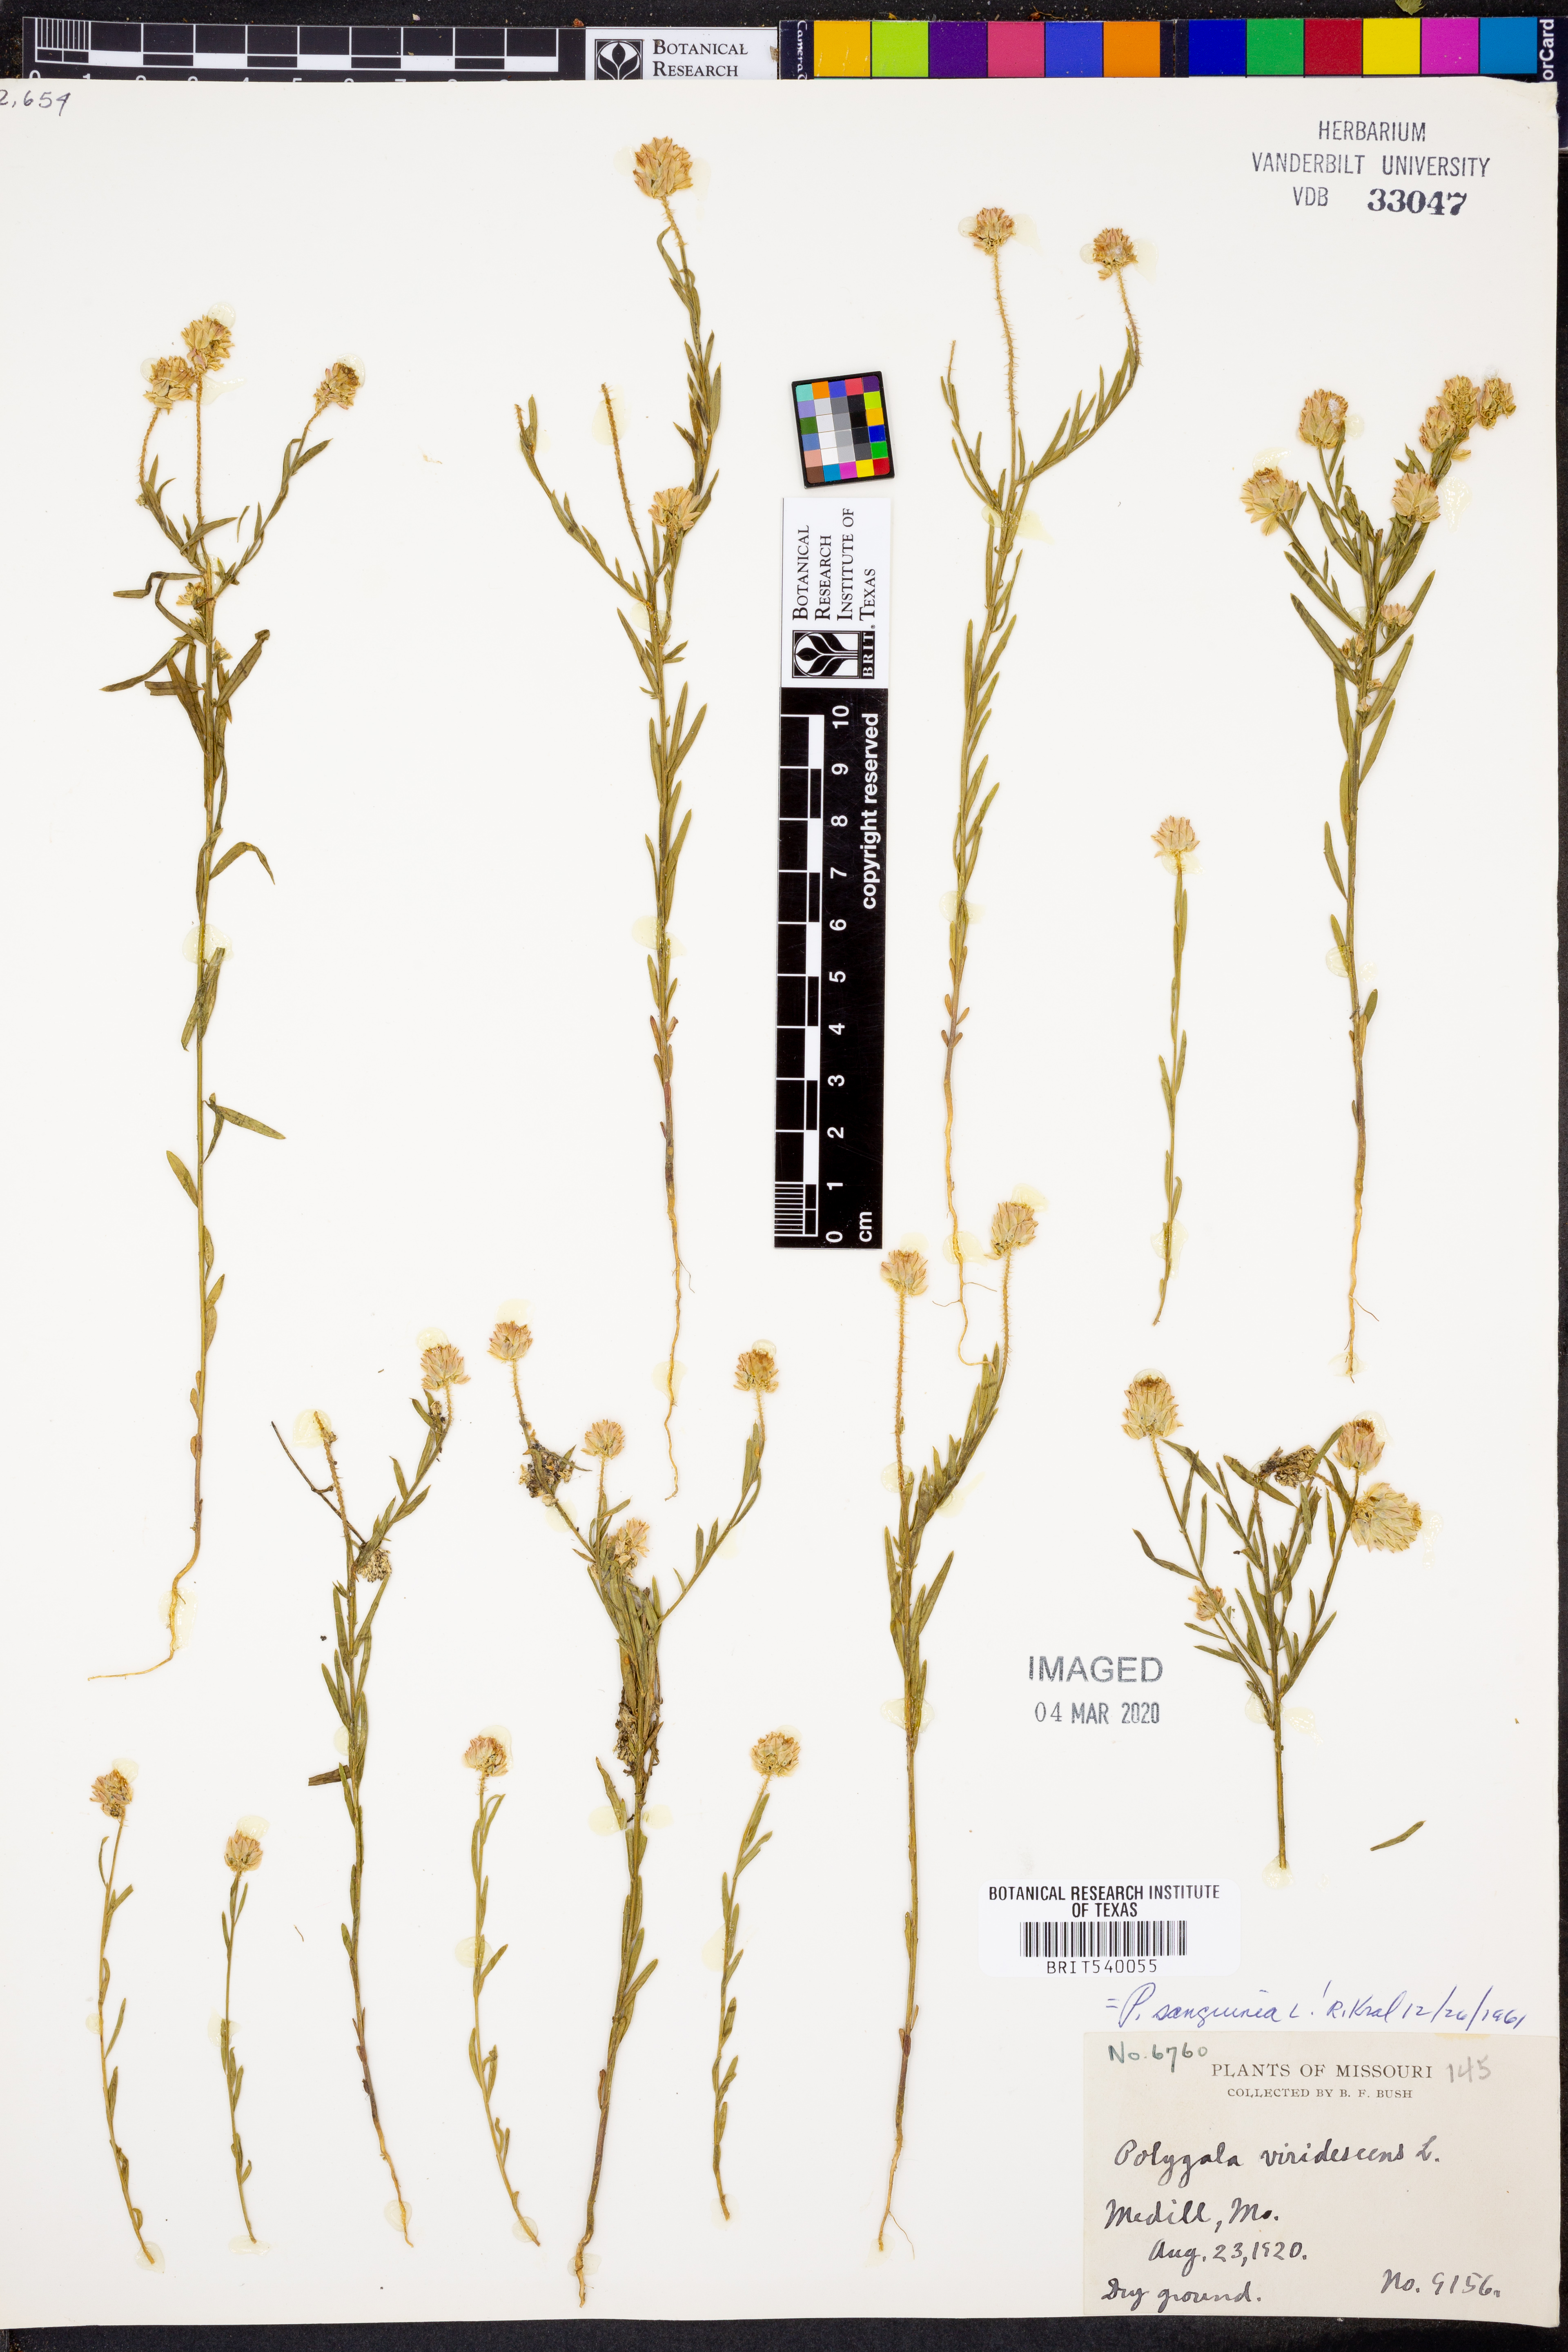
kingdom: Plantae
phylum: Tracheophyta
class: Magnoliopsida
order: Fabales
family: Polygalaceae
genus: Polygala
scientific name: Polygala sanguinea
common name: Blood milkwort
